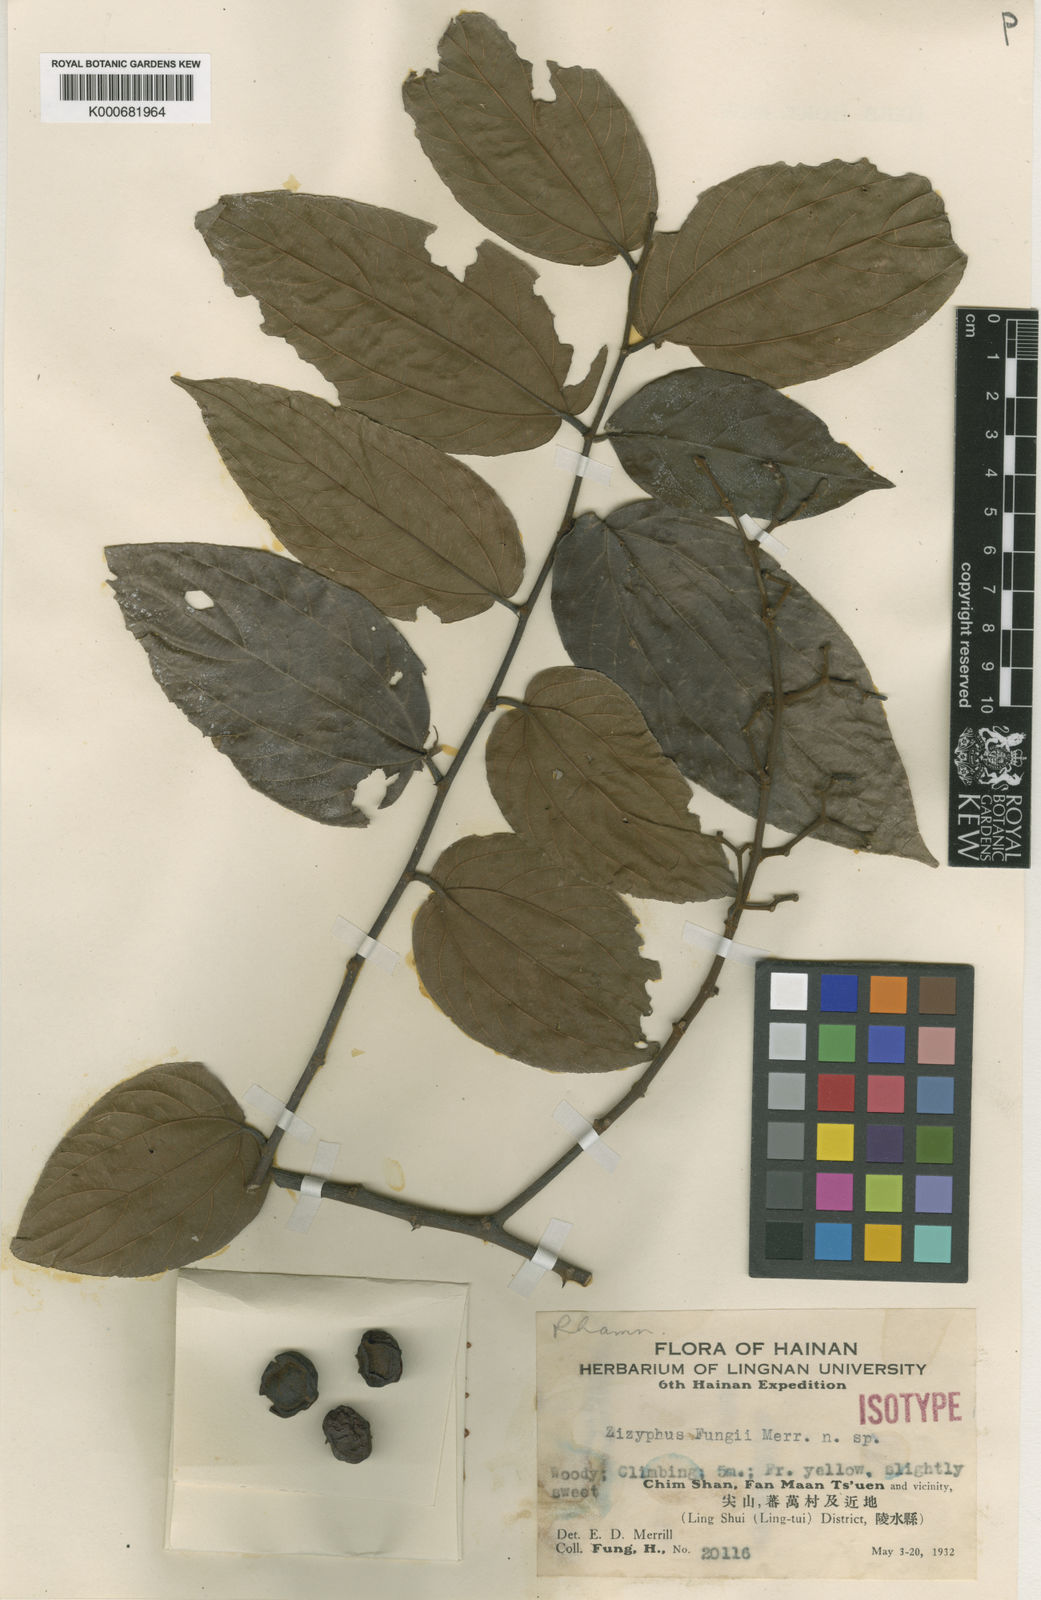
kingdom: Plantae
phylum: Tracheophyta
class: Magnoliopsida
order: Rosales
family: Rhamnaceae
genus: Ziziphus
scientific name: Ziziphus fungii
